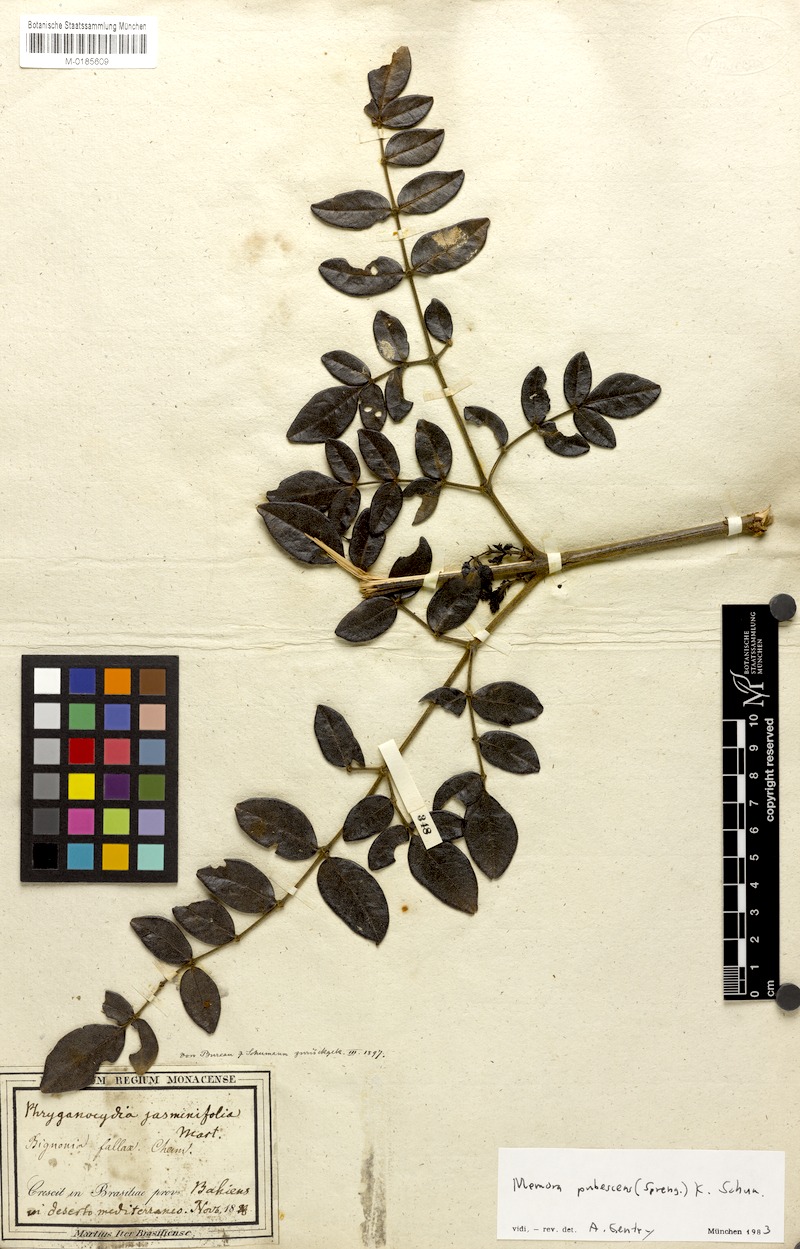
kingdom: Plantae
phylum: Tracheophyta
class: Magnoliopsida
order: Lamiales
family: Bignoniaceae
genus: Adenocalymma
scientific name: Adenocalymma pubescens
